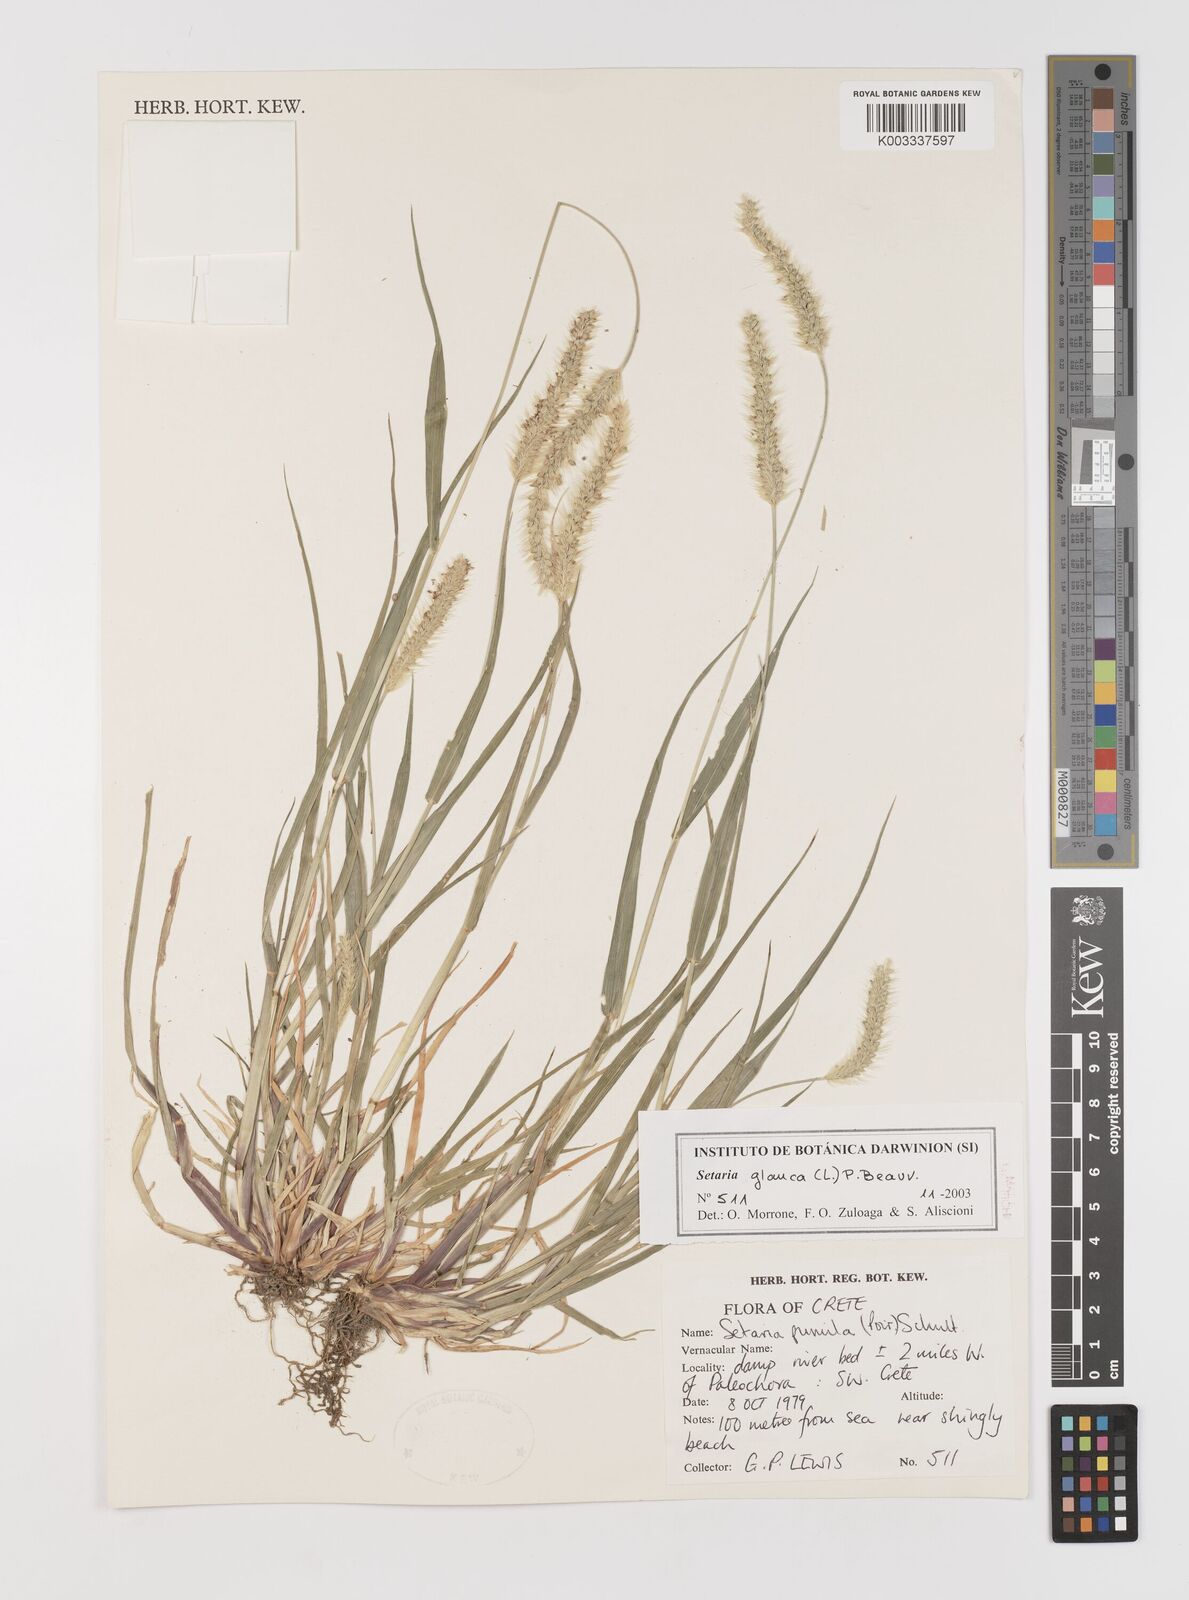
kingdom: Plantae
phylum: Tracheophyta
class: Liliopsida
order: Poales
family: Poaceae
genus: Setaria
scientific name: Setaria pumila
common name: Yellow bristle-grass
